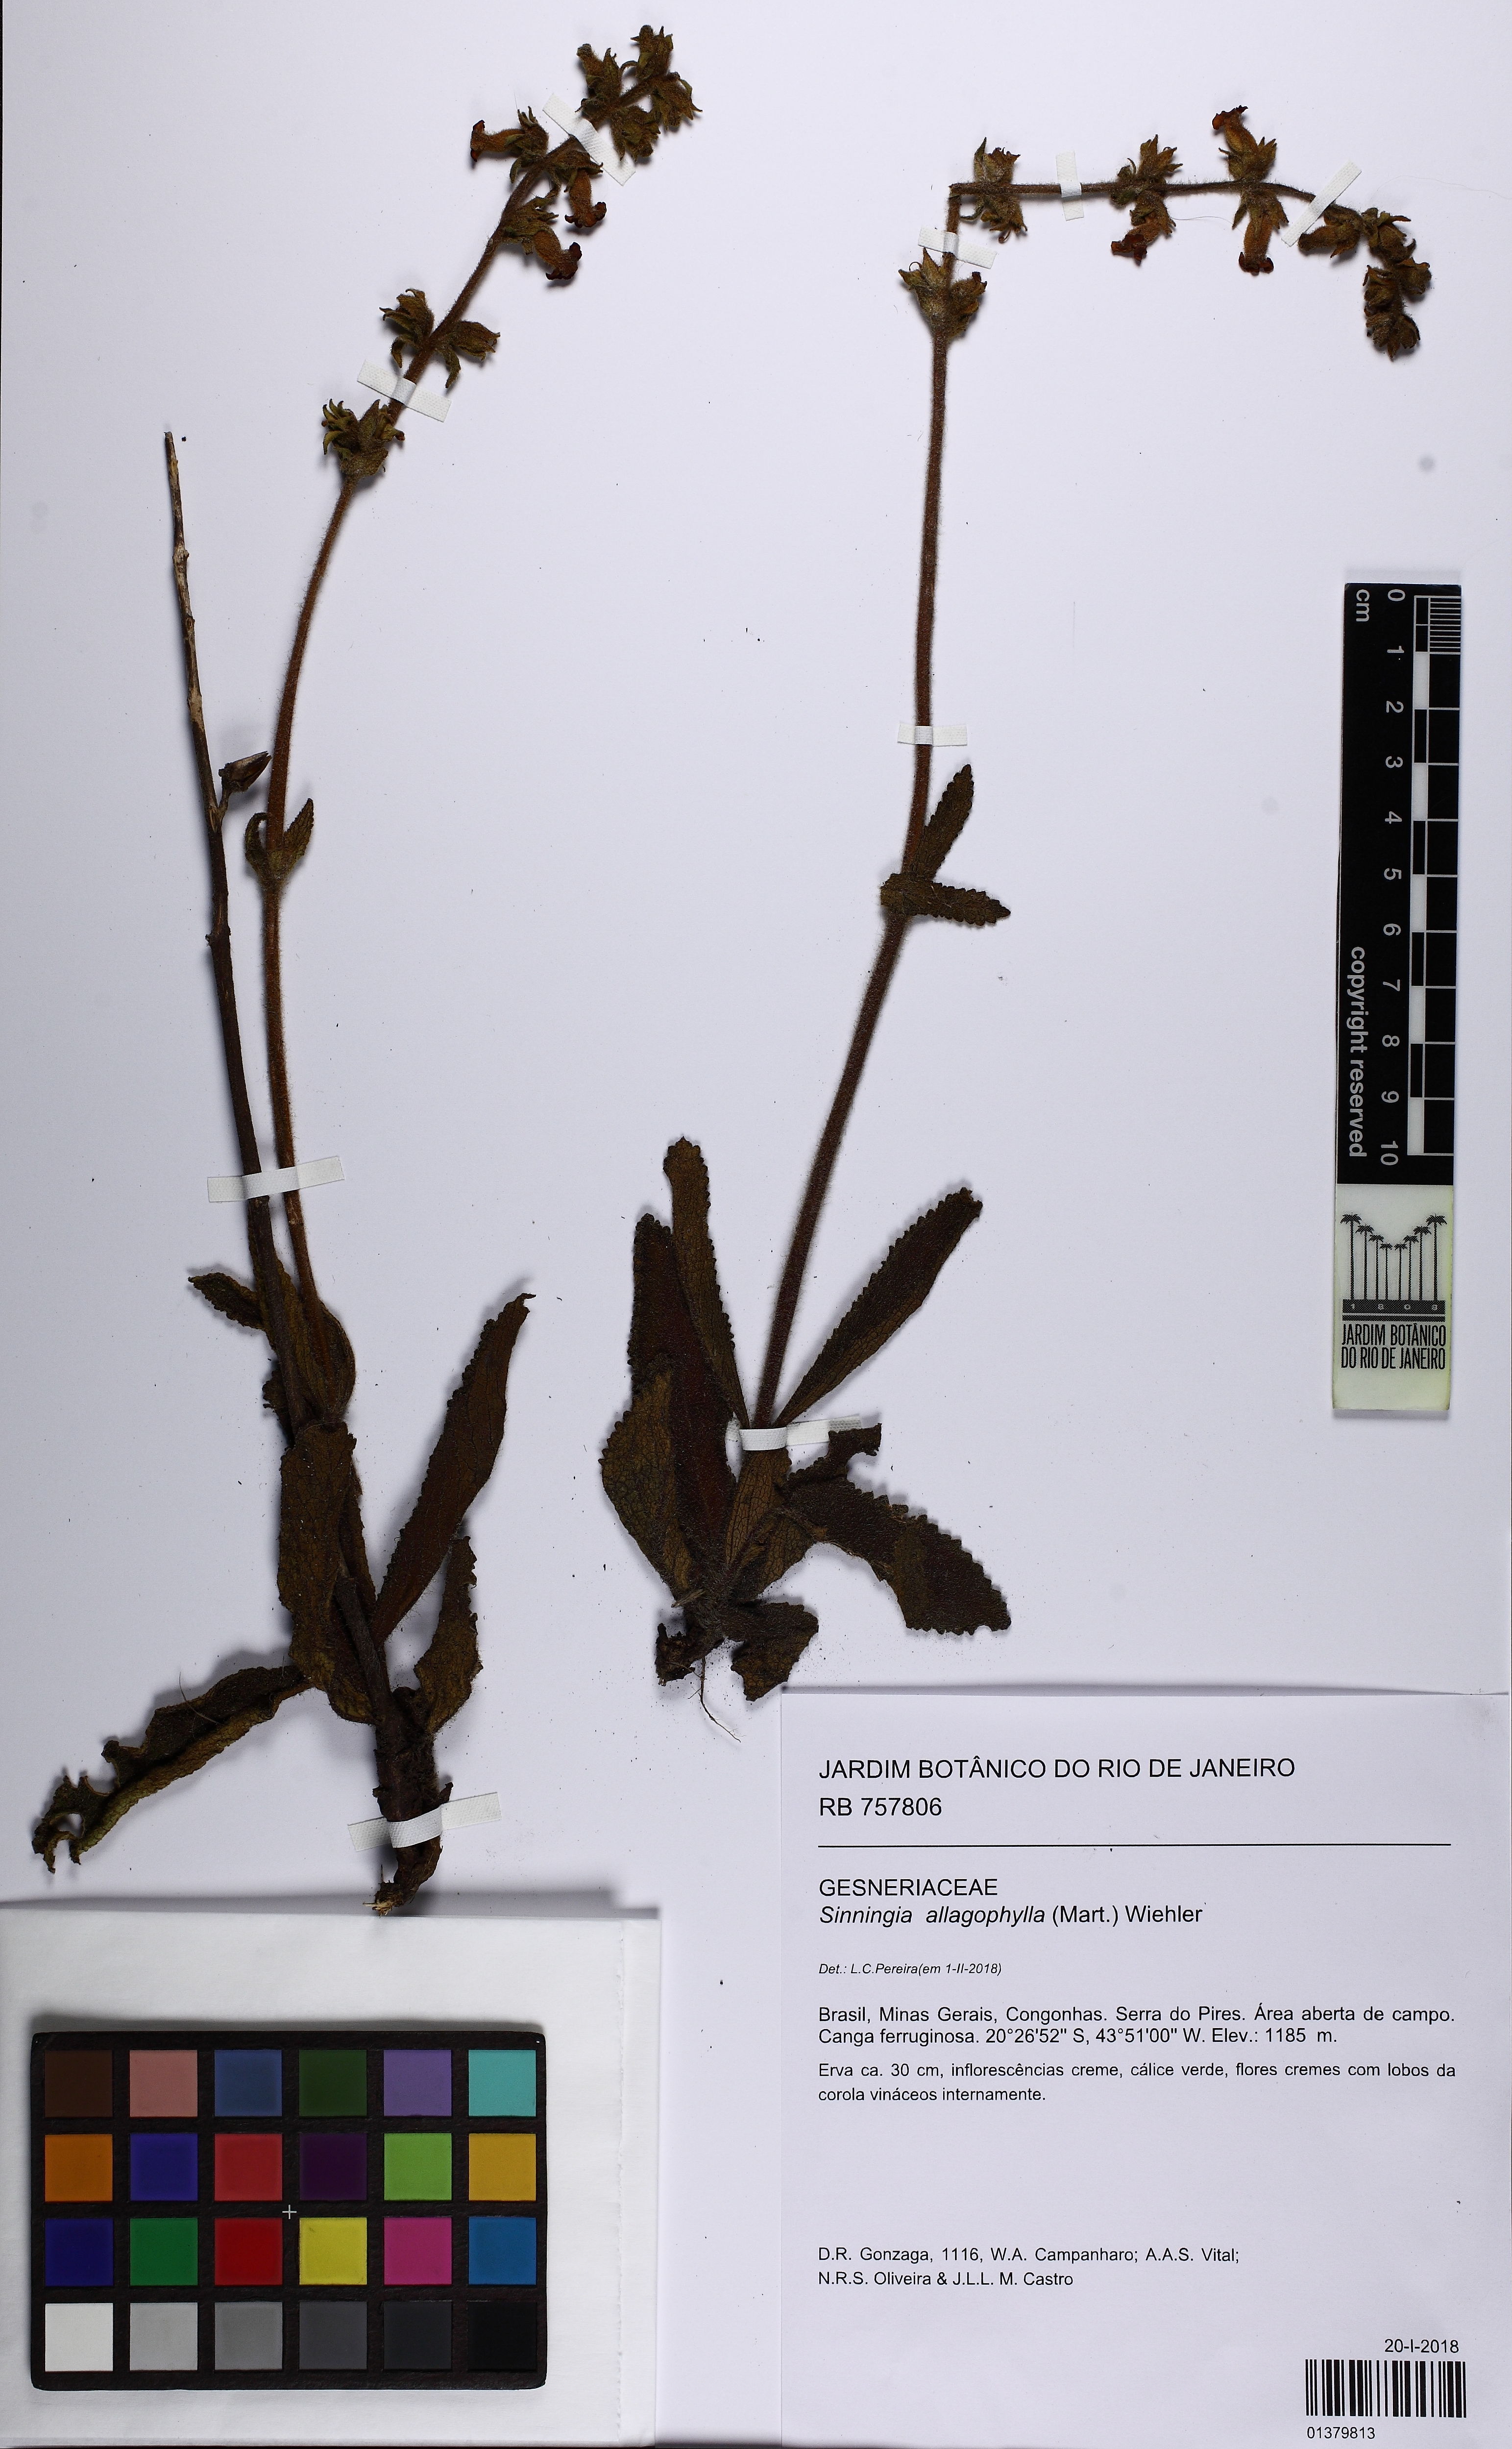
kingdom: Plantae
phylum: Tracheophyta
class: Magnoliopsida
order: Lamiales
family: Gesneriaceae
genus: Sinningia
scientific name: Sinningia allagophylla
